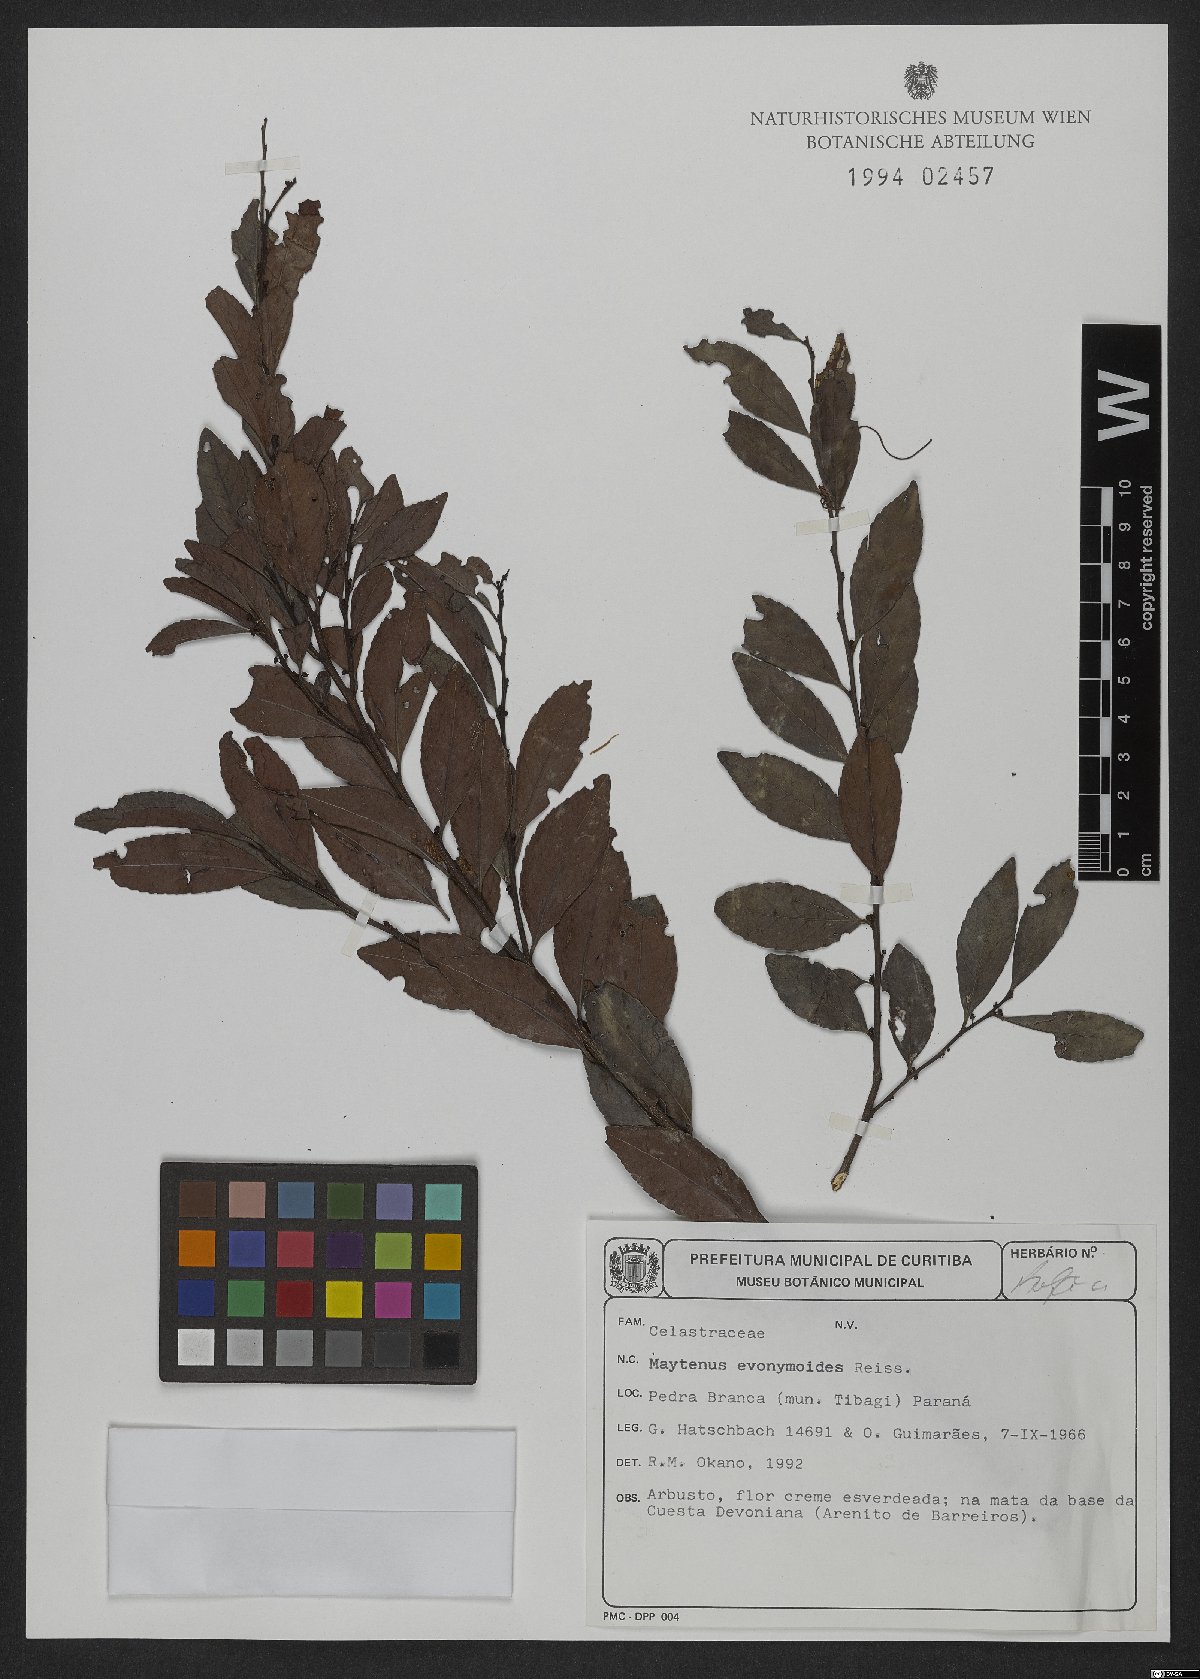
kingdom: Plantae
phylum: Tracheophyta
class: Magnoliopsida
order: Celastrales
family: Celastraceae
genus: Monteverdia
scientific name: Monteverdia evonymoides
